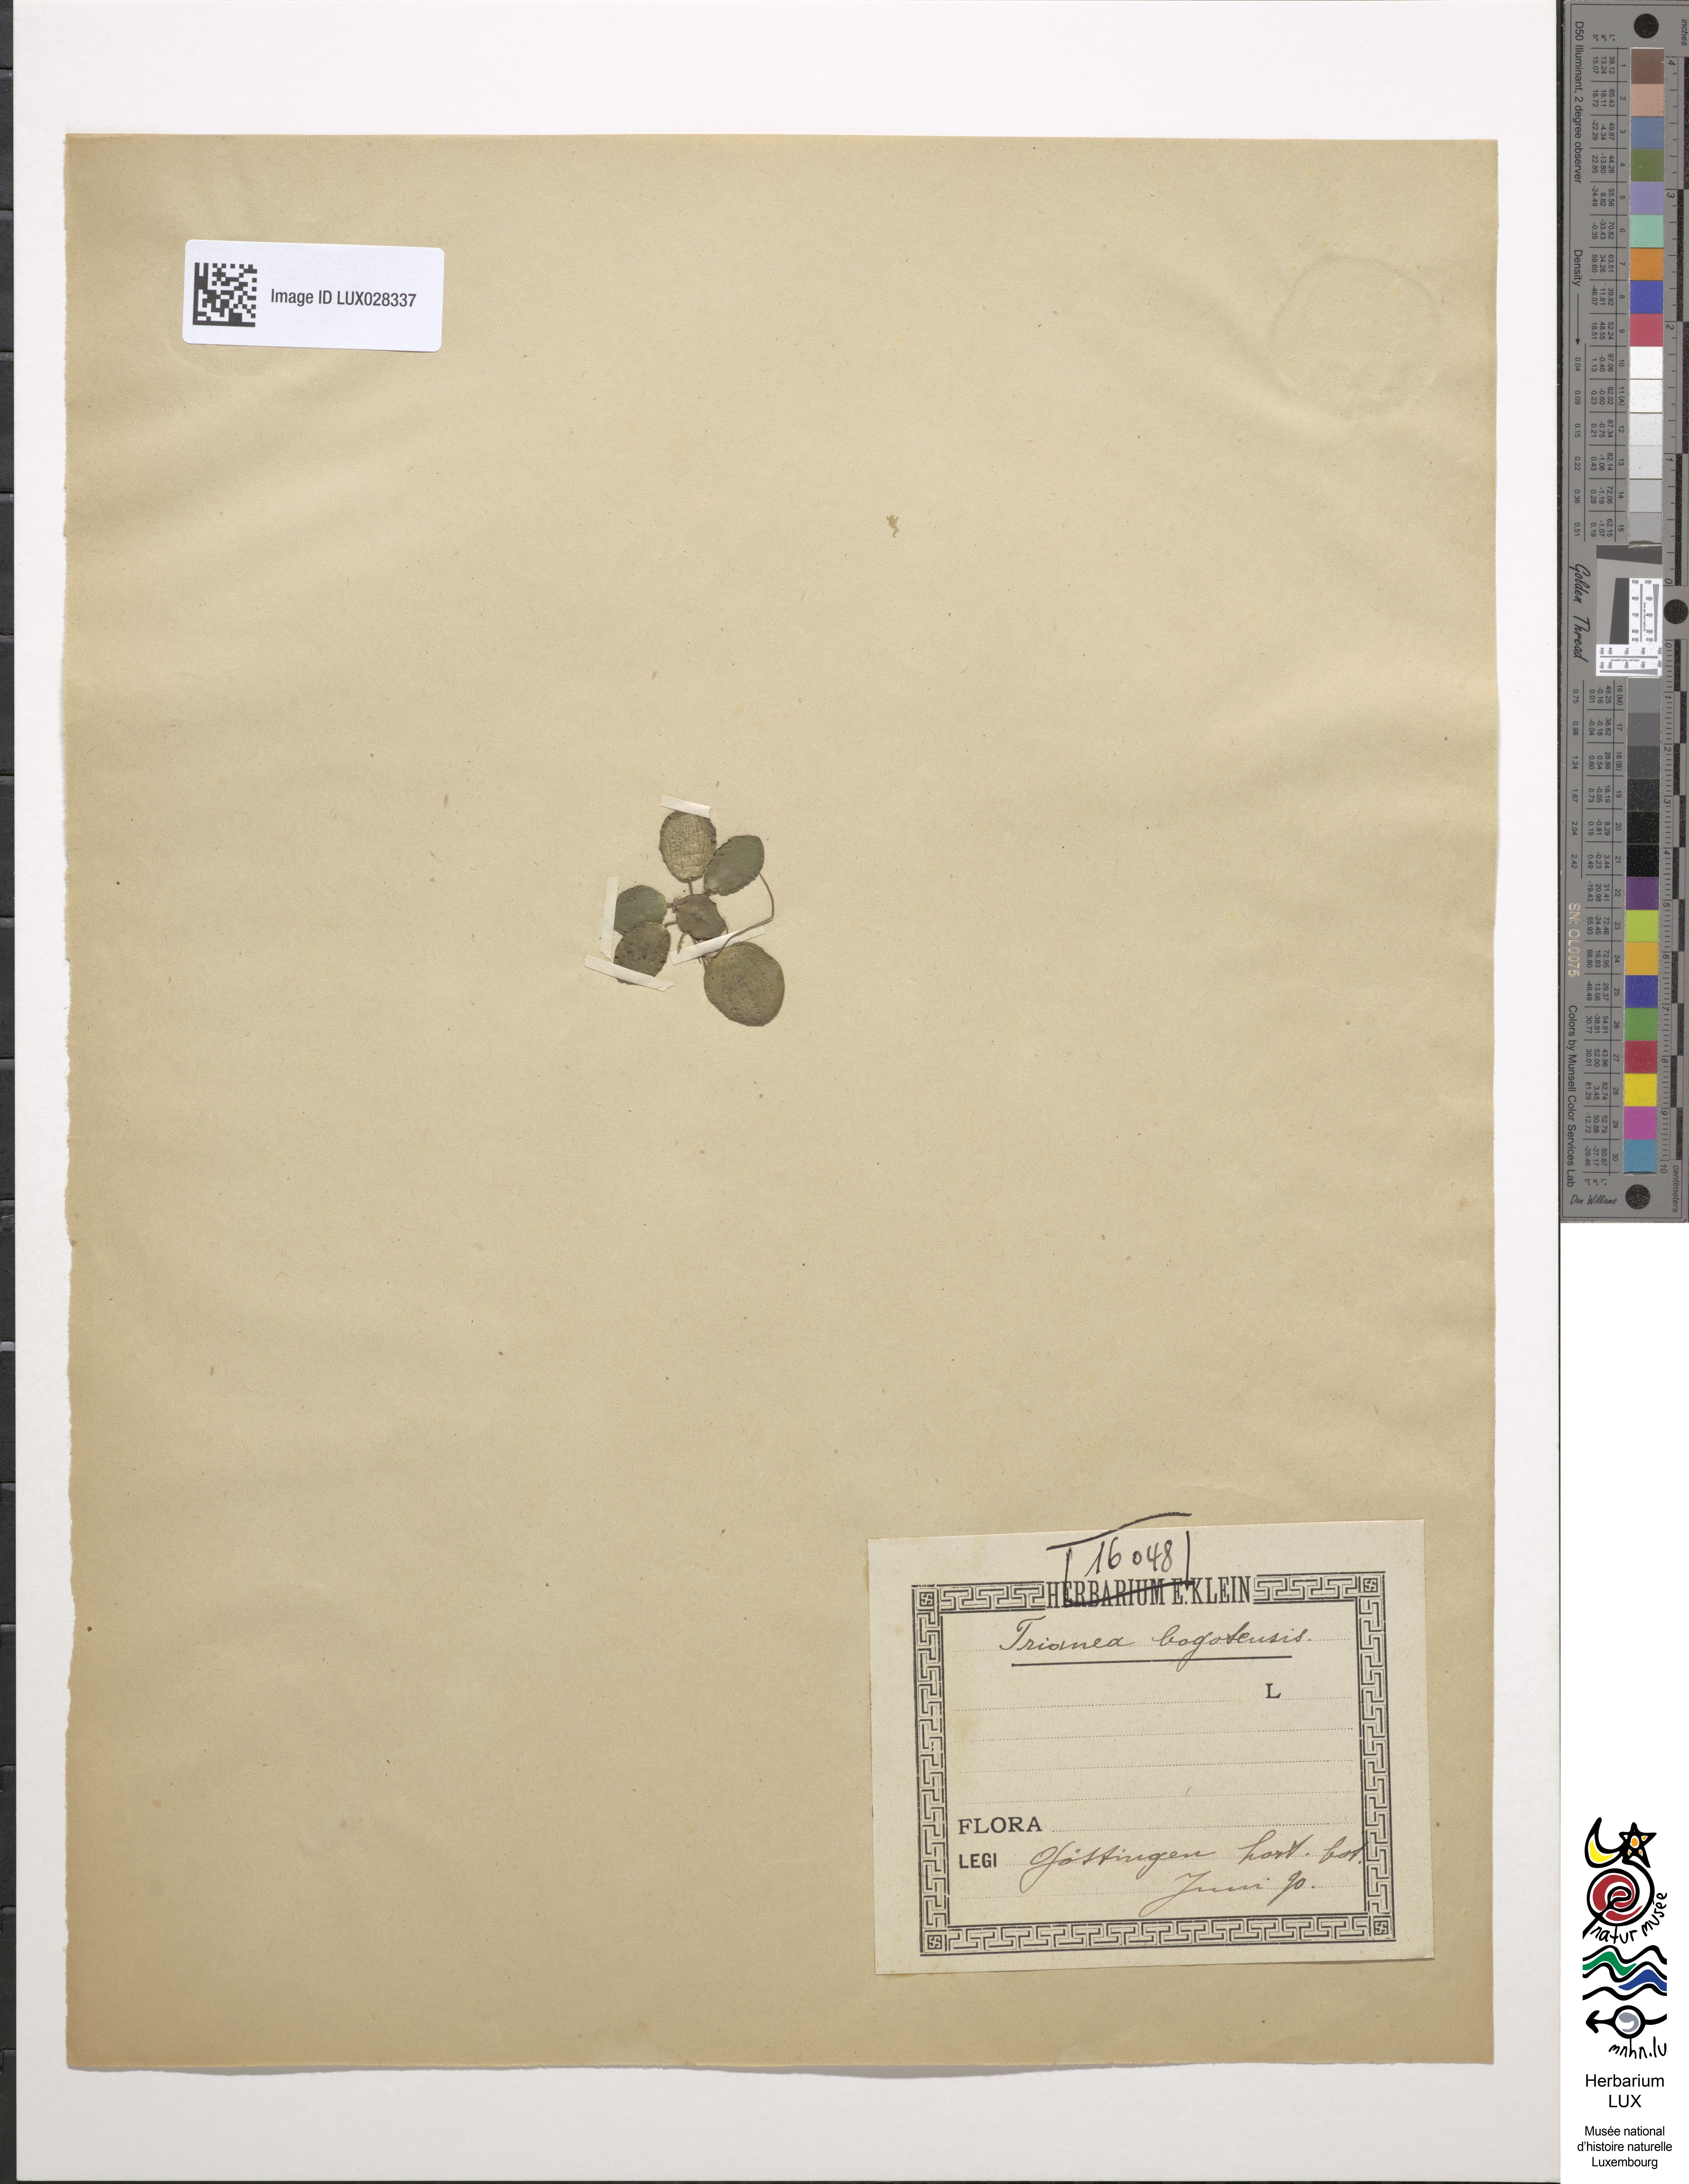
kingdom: Plantae
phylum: Tracheophyta
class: Liliopsida
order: Alismatales
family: Hydrocharitaceae
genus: Hydrocharis
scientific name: Hydrocharis laevigata
